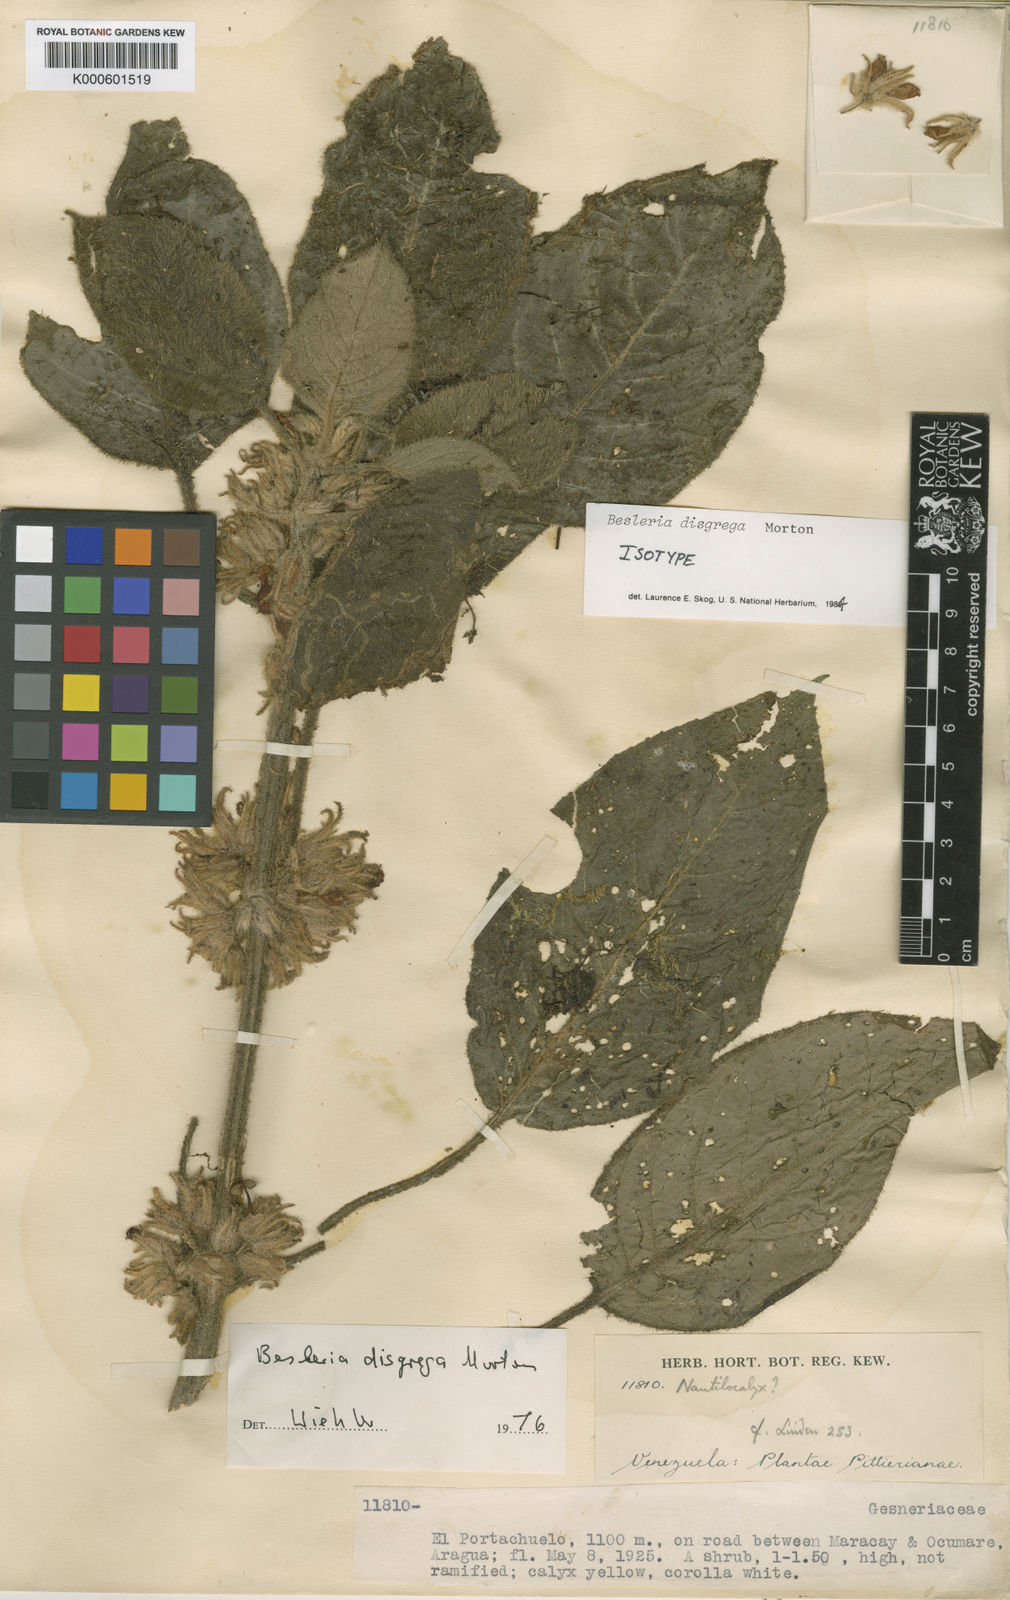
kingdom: Plantae
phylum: Tracheophyta
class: Magnoliopsida
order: Lamiales
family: Gesneriaceae
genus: Besleria
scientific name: Besleria disgrega
